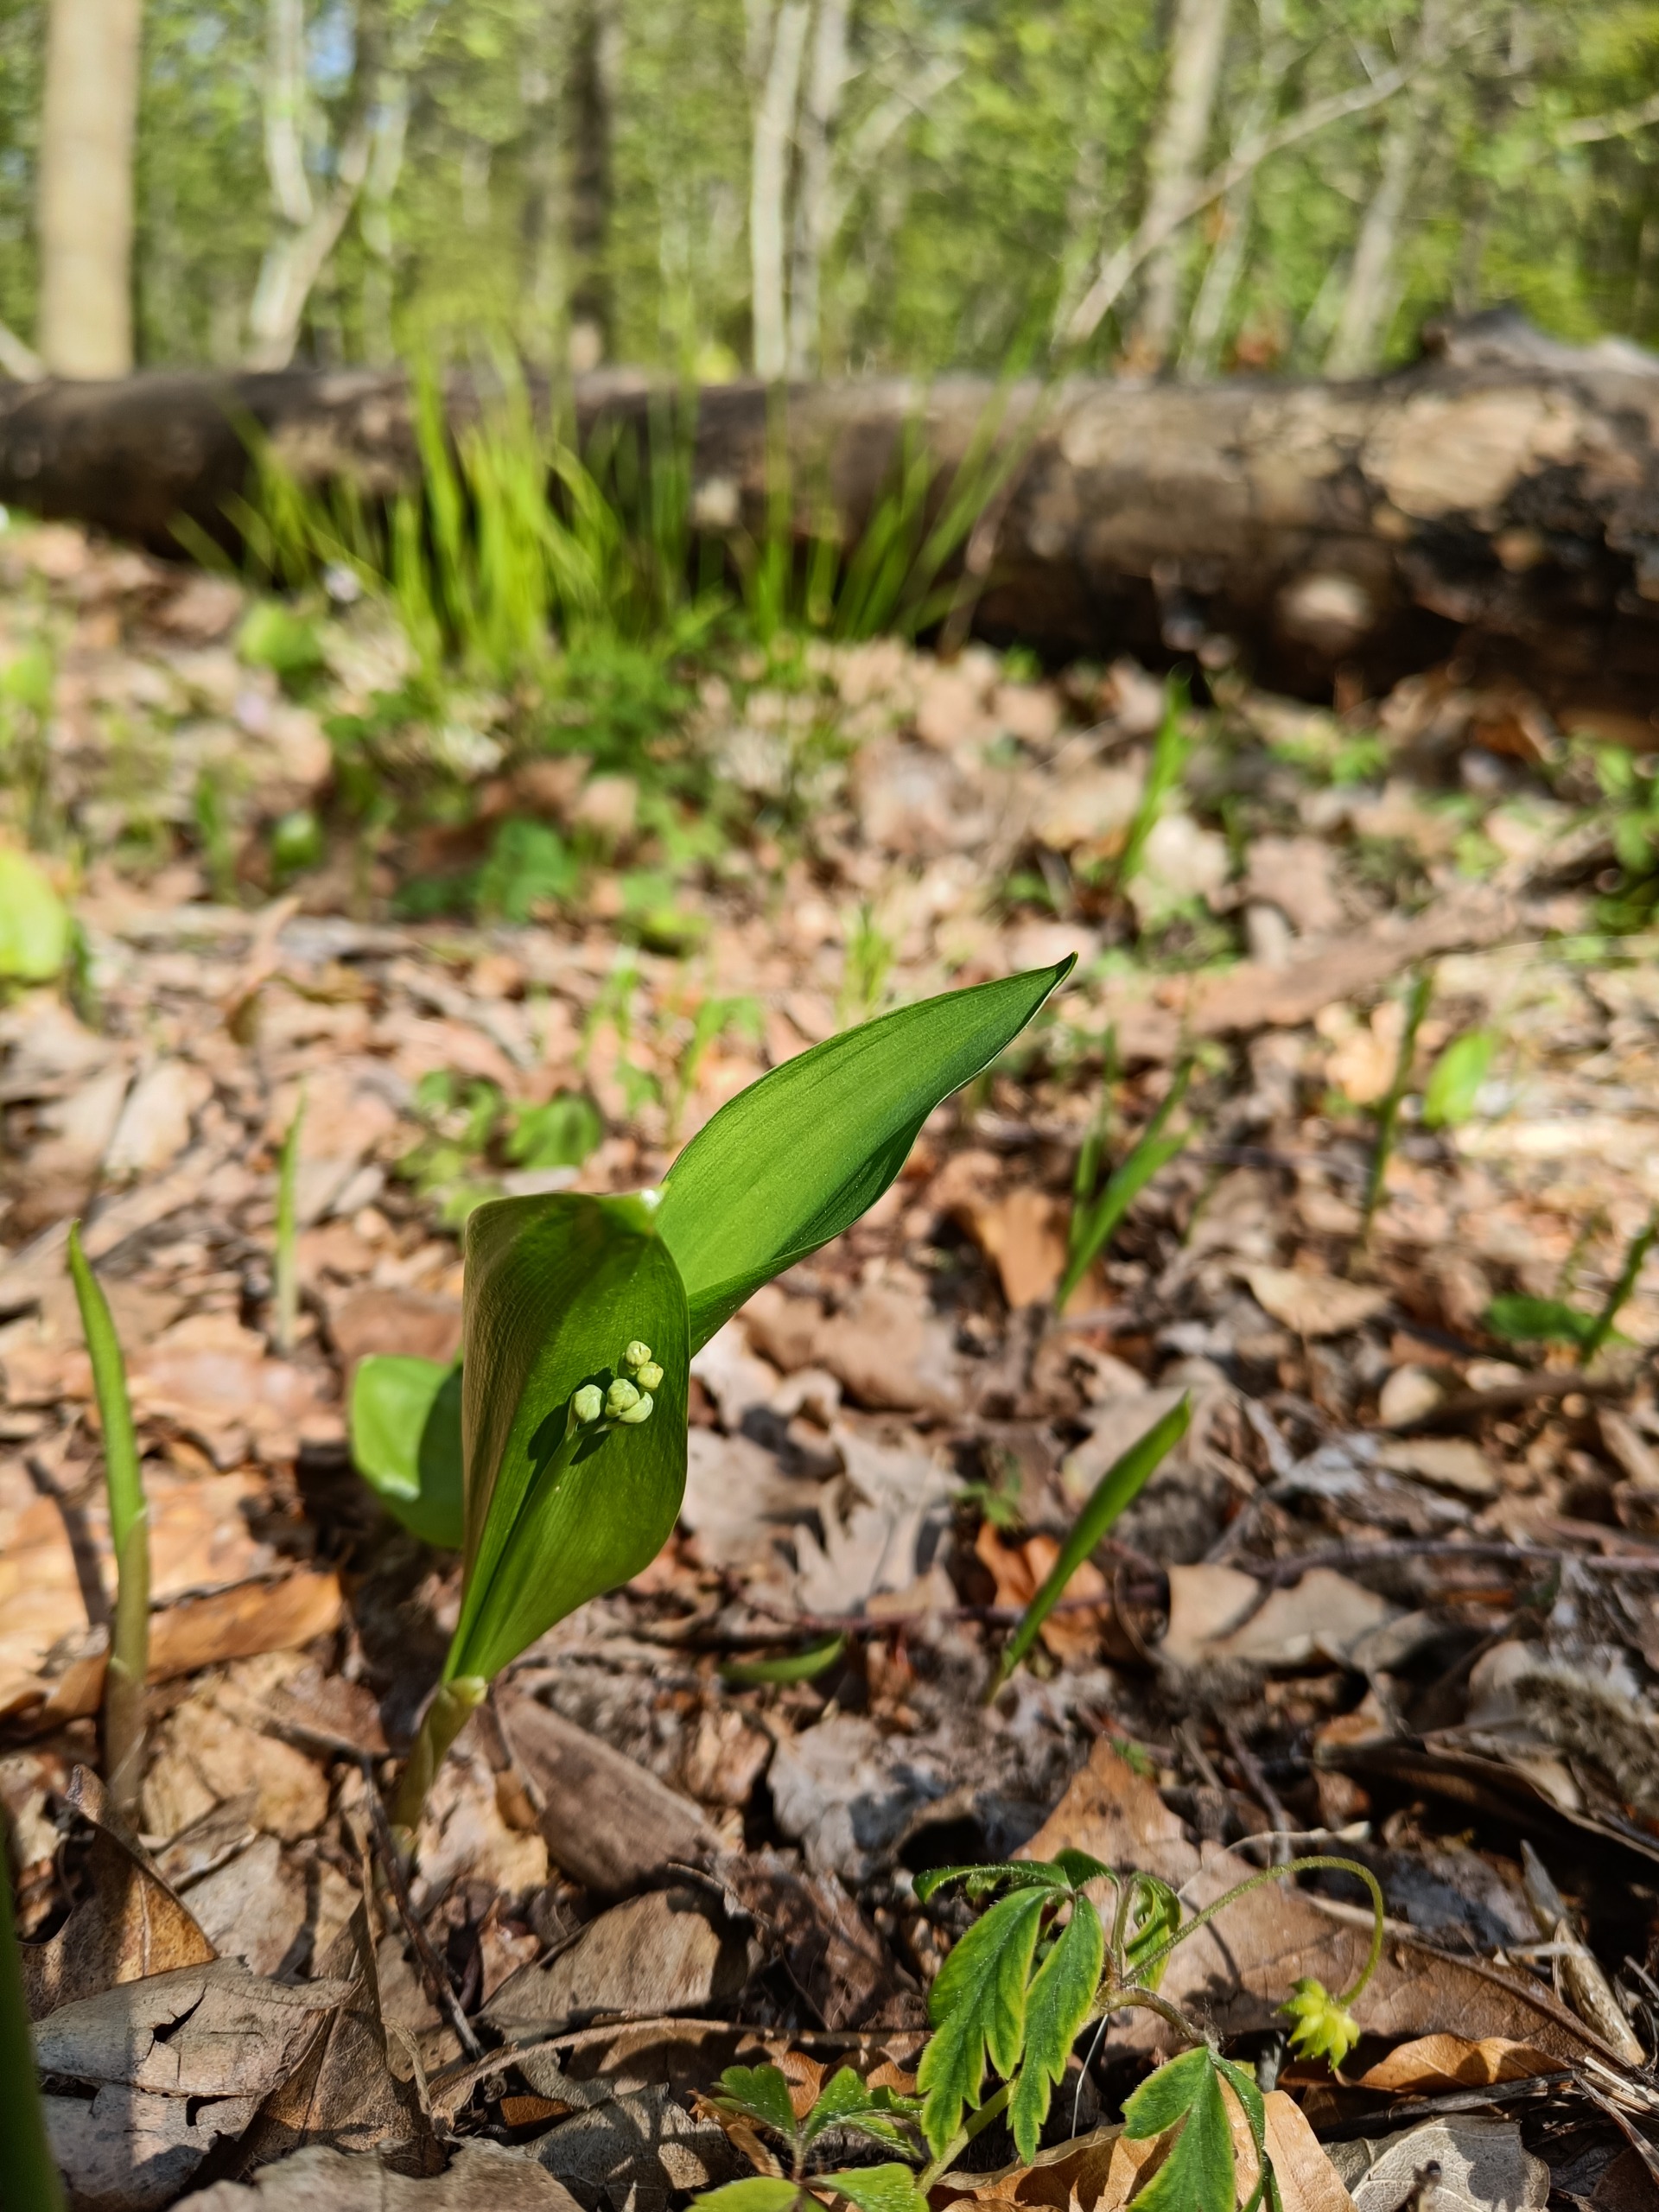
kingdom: Plantae
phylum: Tracheophyta
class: Liliopsida
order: Asparagales
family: Asparagaceae
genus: Convallaria
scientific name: Convallaria majalis
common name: Liljekonval
